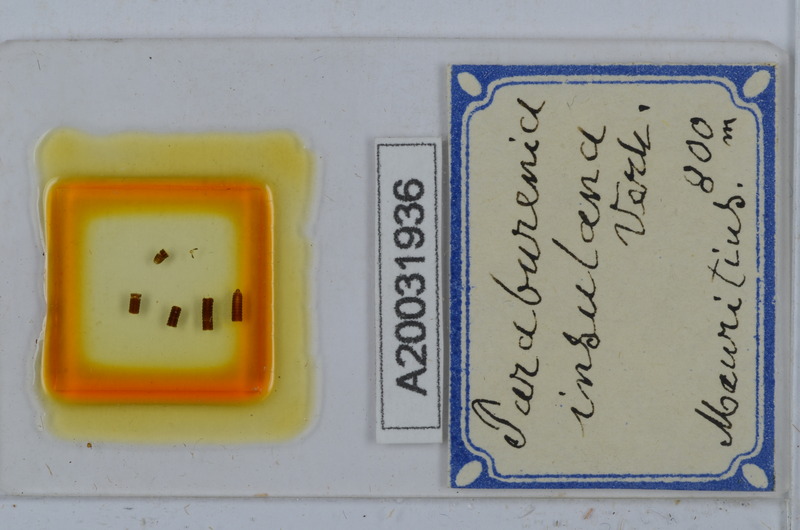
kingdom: Animalia
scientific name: Animalia
